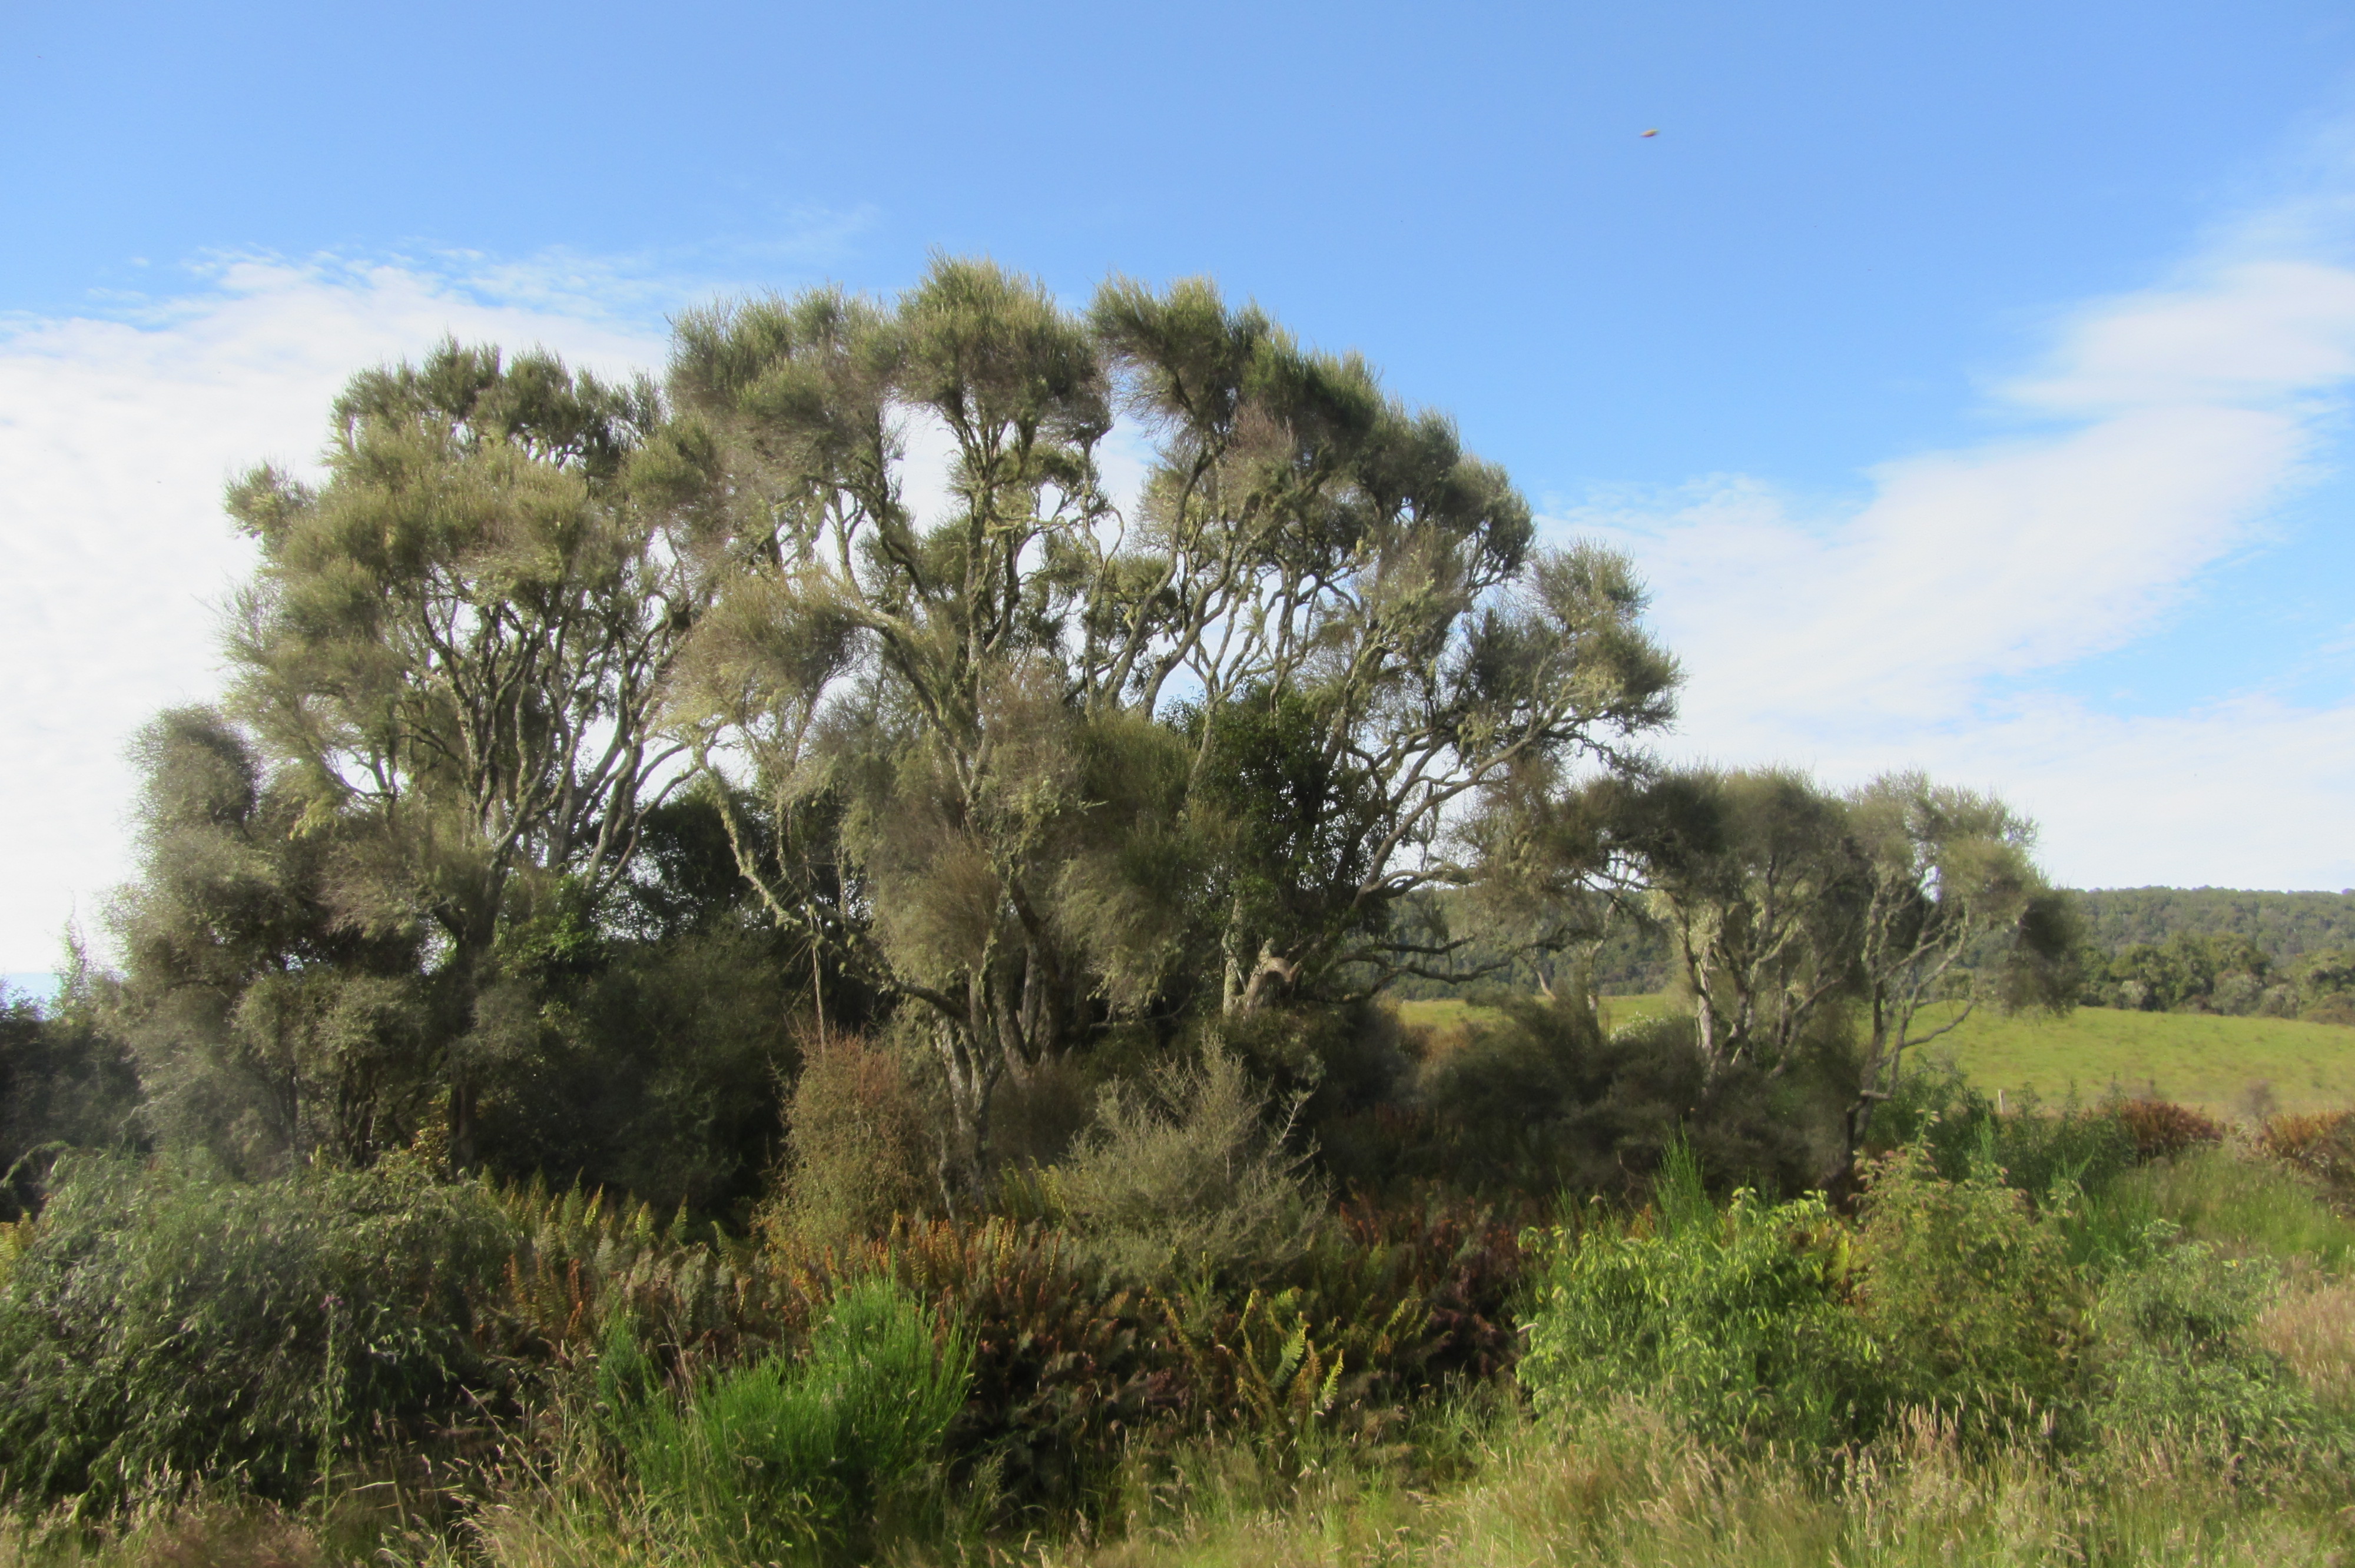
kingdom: Plantae
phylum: Tracheophyta
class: Magnoliopsida
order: Asterales
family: Asteraceae
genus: Olearia
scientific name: Olearia rani
